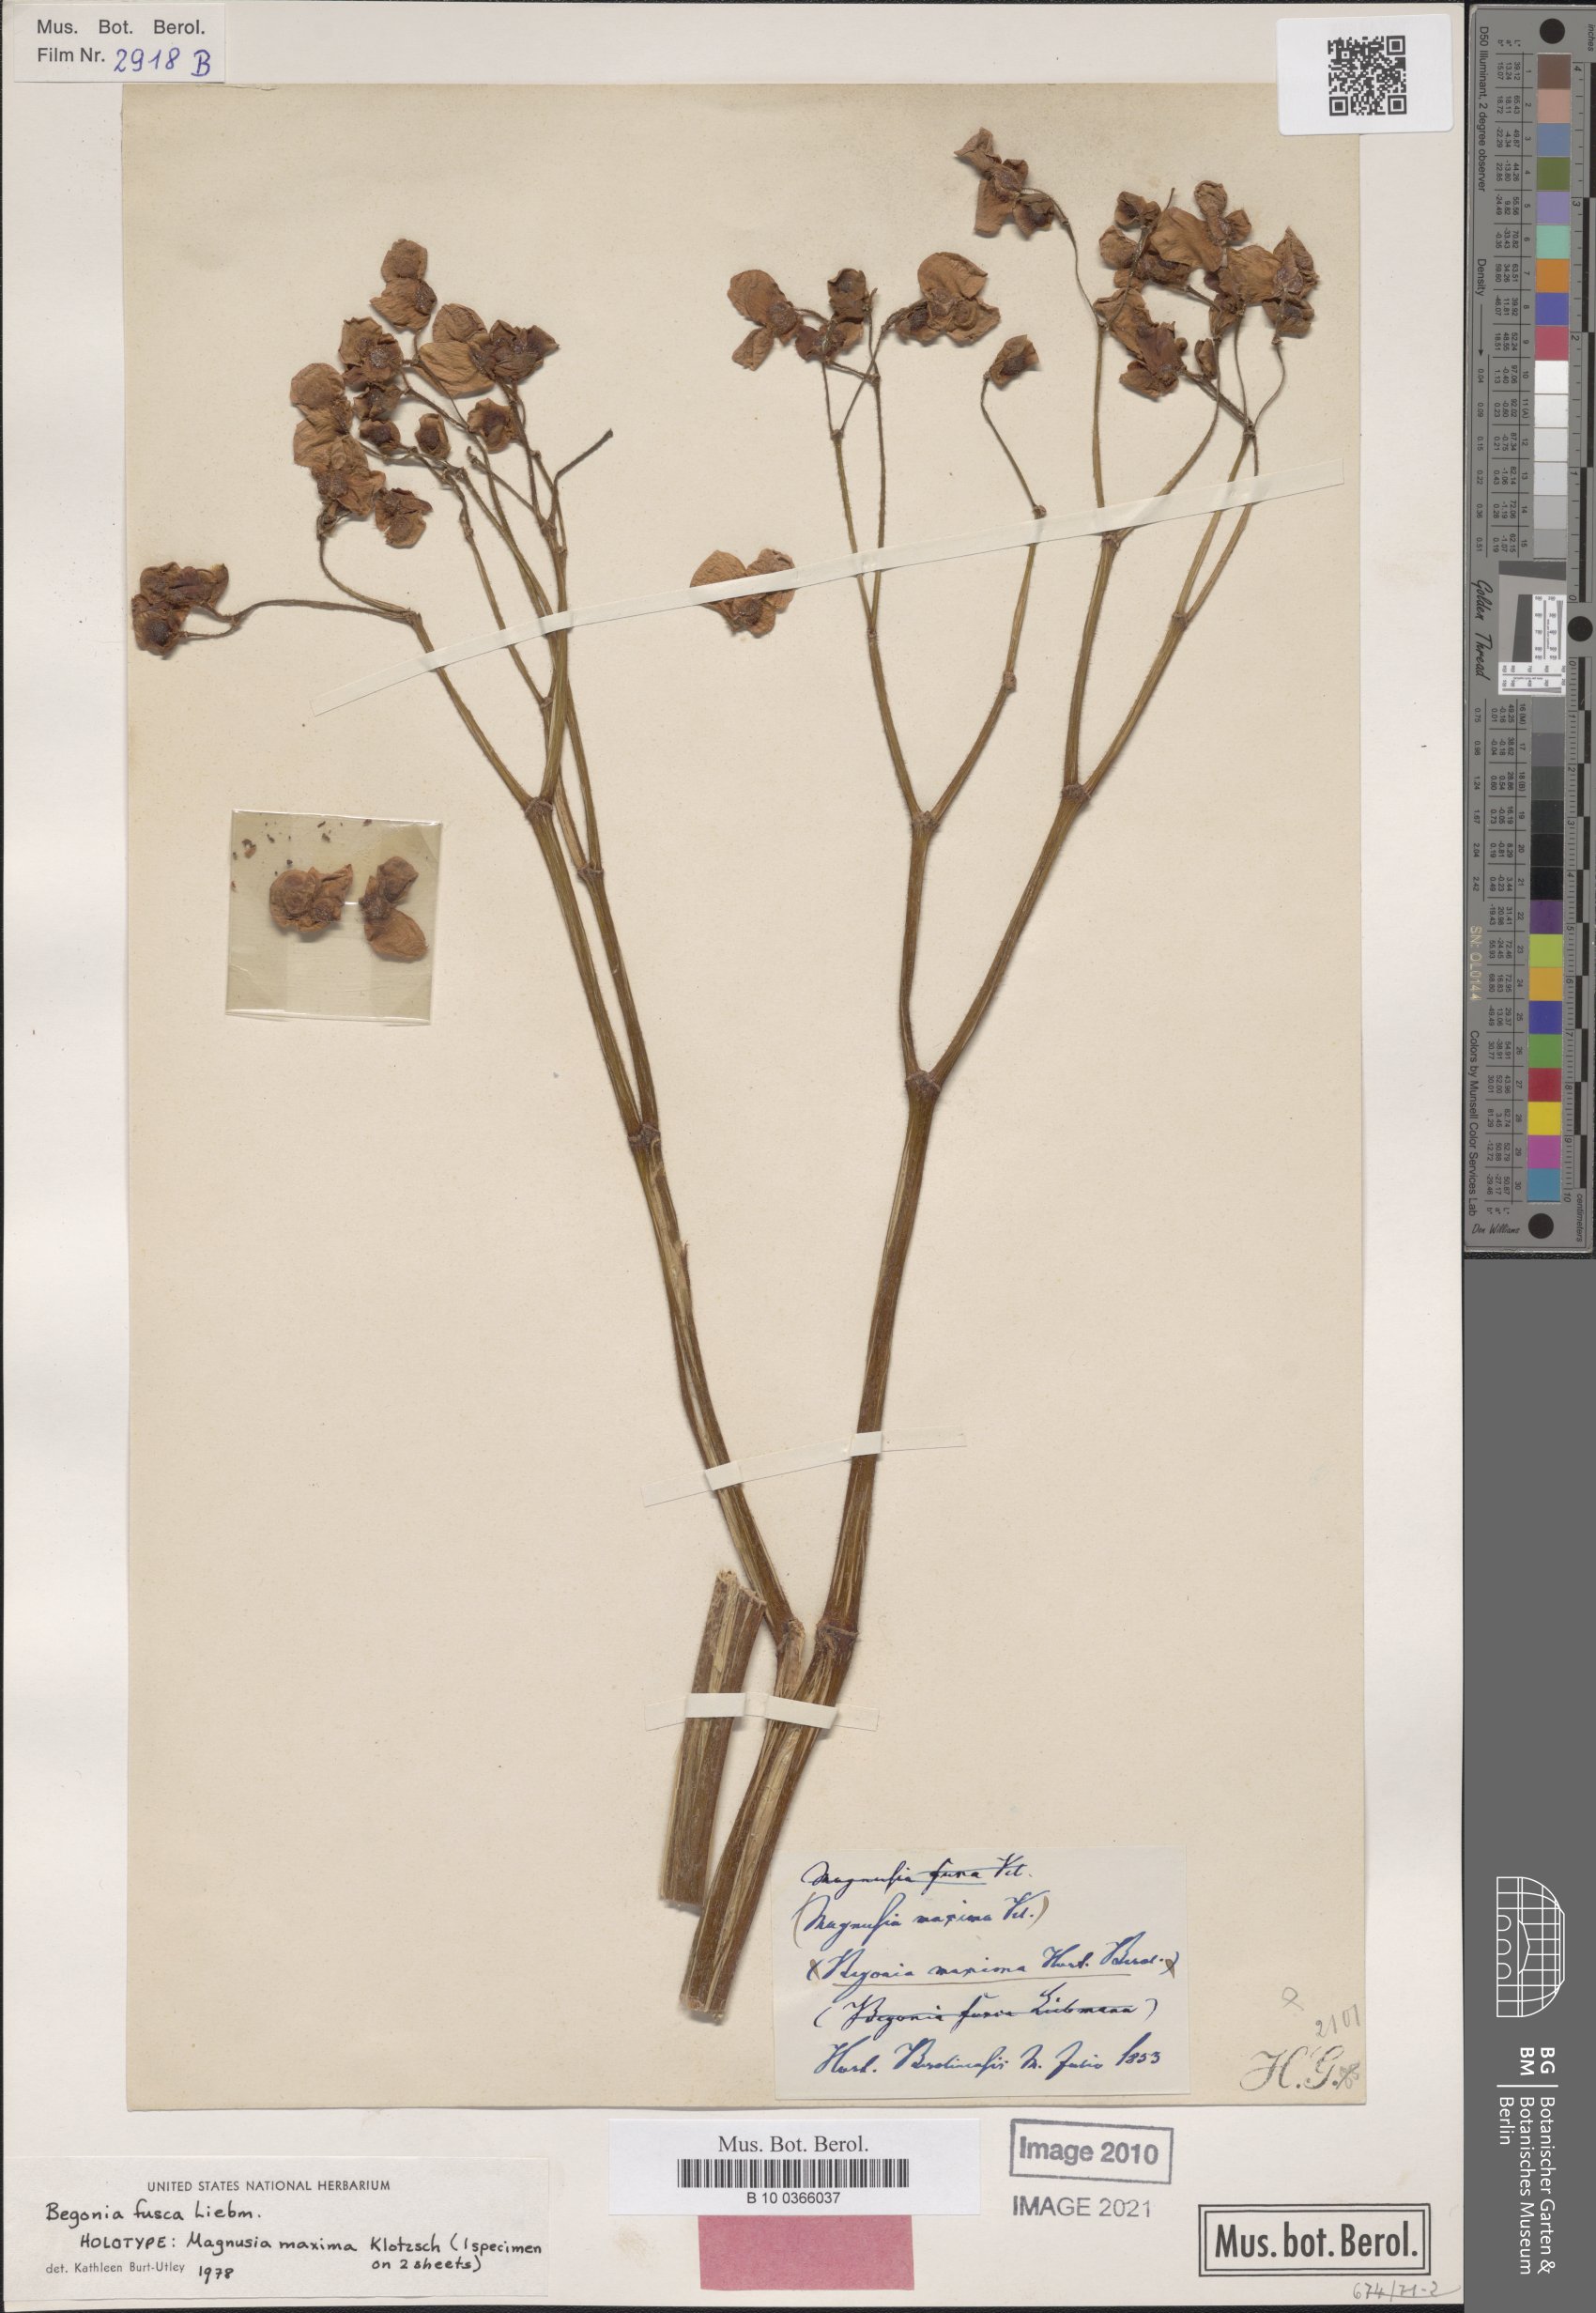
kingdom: Plantae
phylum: Tracheophyta
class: Magnoliopsida
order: Cucurbitales
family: Begoniaceae
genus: Begonia
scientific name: Begonia fusca
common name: Begonia
